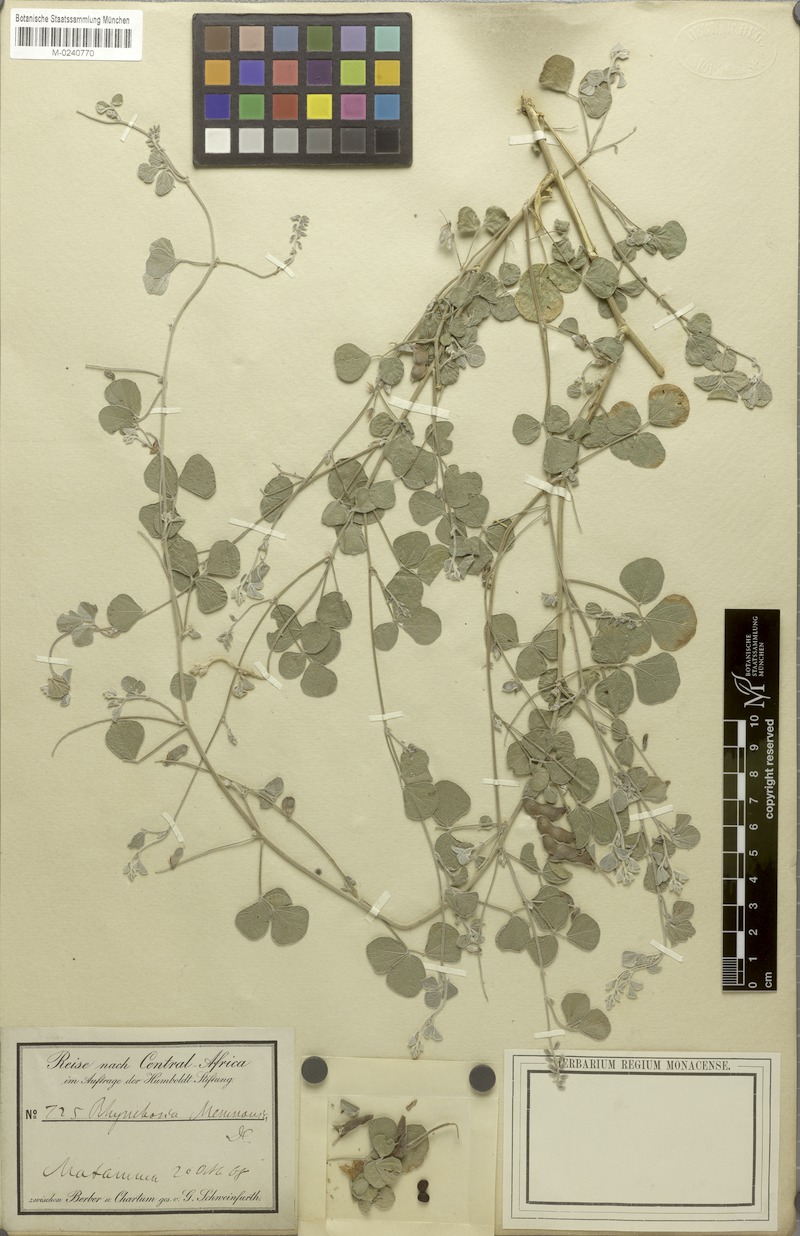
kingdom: Plantae
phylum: Tracheophyta
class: Magnoliopsida
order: Fabales
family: Fabaceae
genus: Rhynchosia
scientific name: Rhynchosia minima
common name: Least snoutbean
